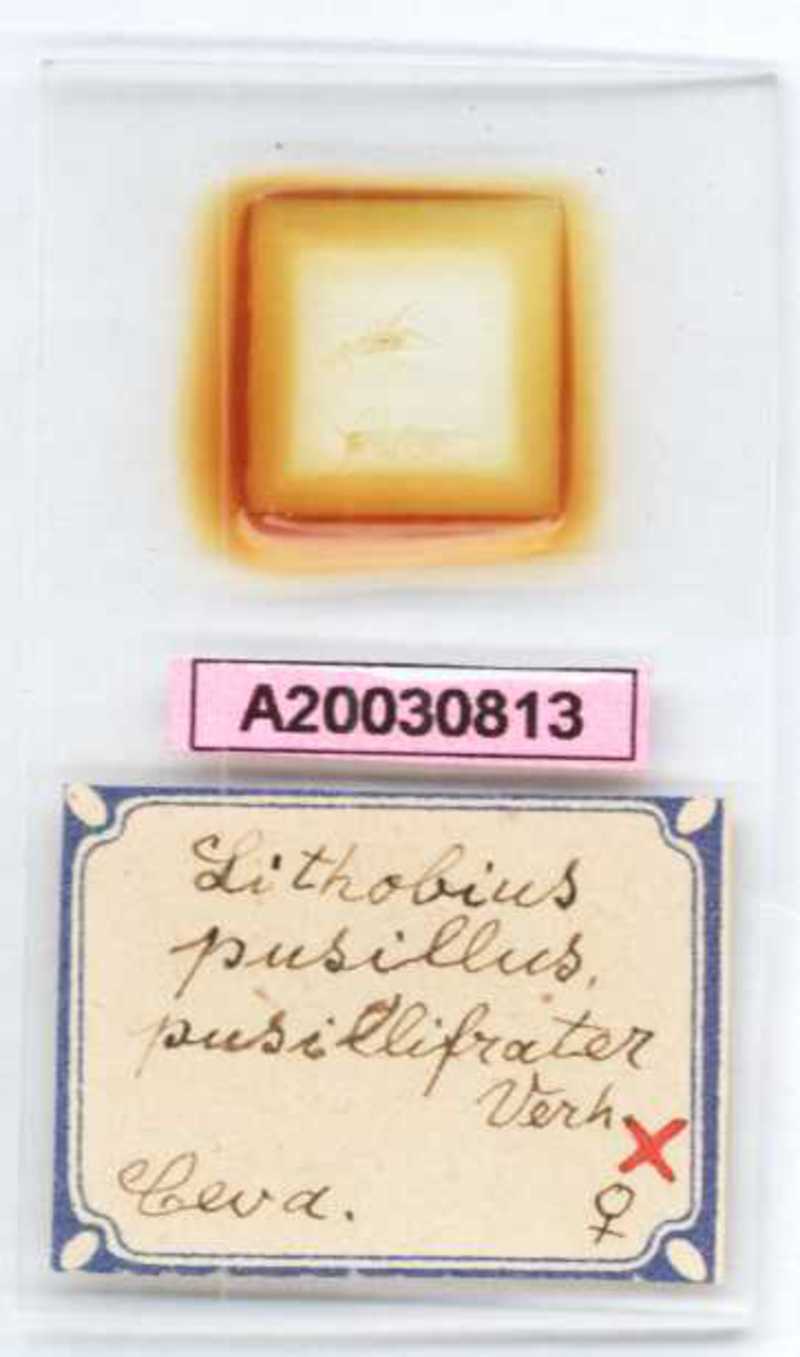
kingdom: Animalia
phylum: Arthropoda
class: Chilopoda
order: Lithobiomorpha
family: Lithobiidae
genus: Lithobius
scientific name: Lithobius lapidicola
